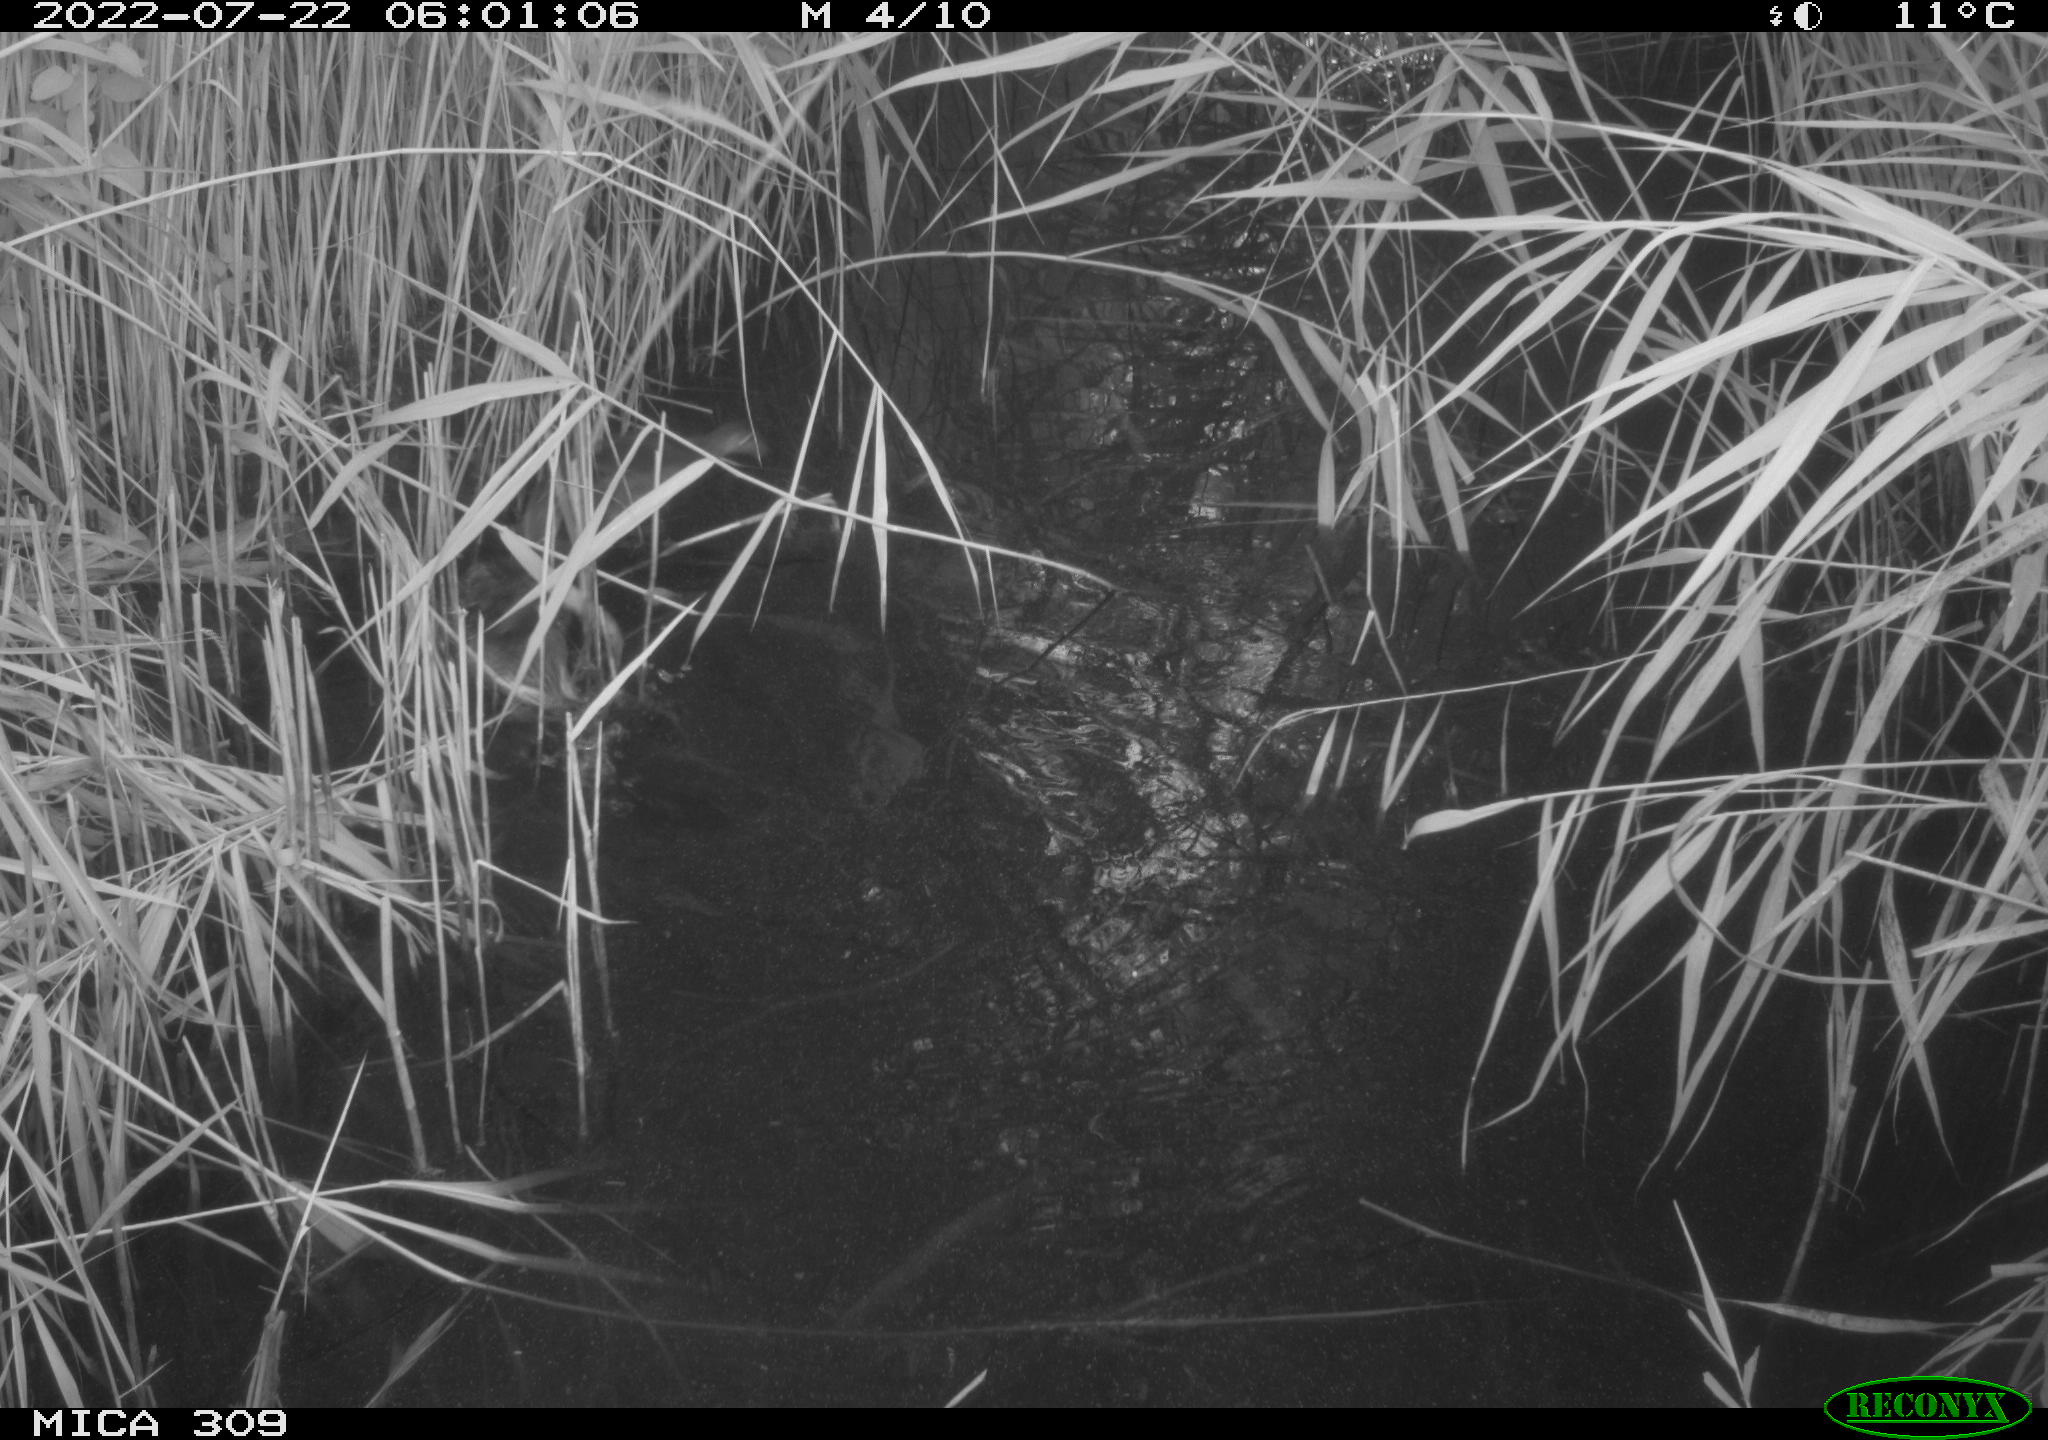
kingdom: Animalia
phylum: Chordata
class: Aves
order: Anseriformes
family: Anatidae
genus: Anas
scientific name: Anas platyrhynchos
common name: Mallard
